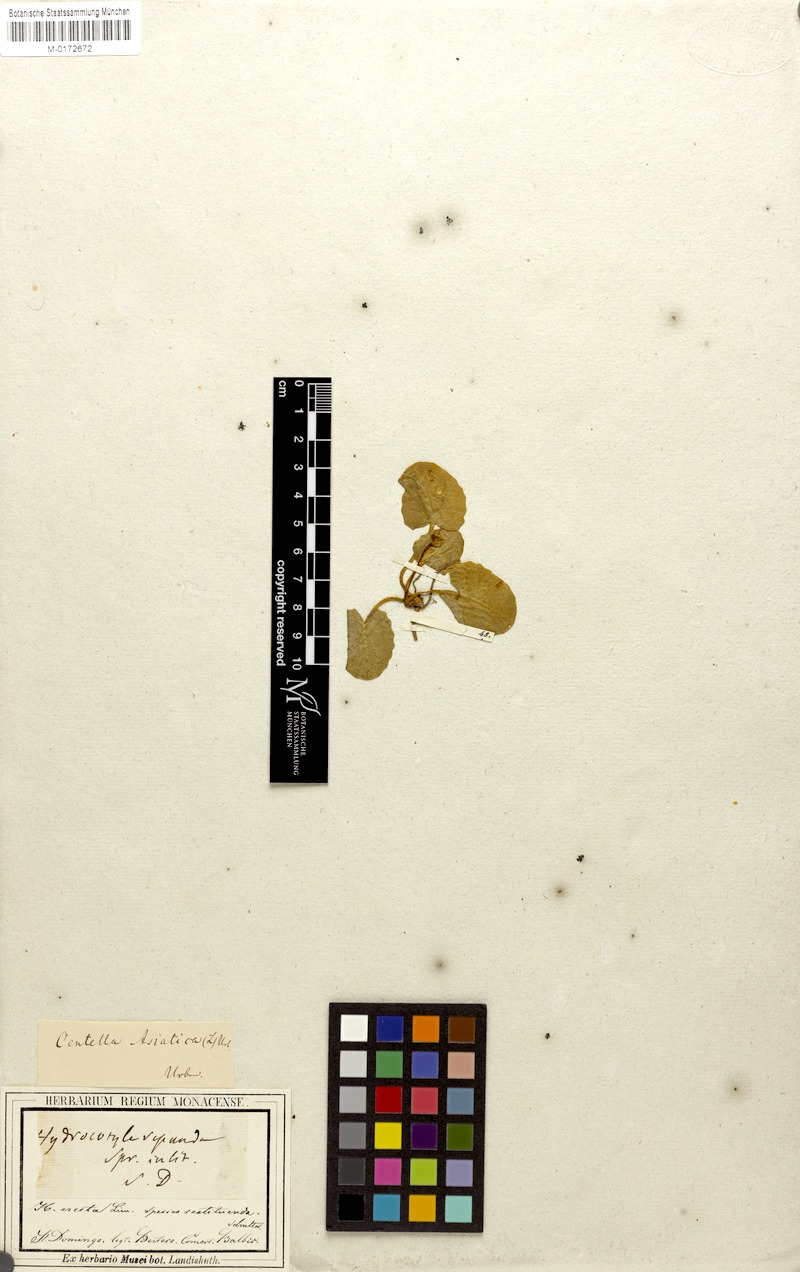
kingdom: Plantae
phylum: Tracheophyta
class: Magnoliopsida
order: Apiales
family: Apiaceae
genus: Centella
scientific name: Centella asiatica
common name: Spadeleaf
